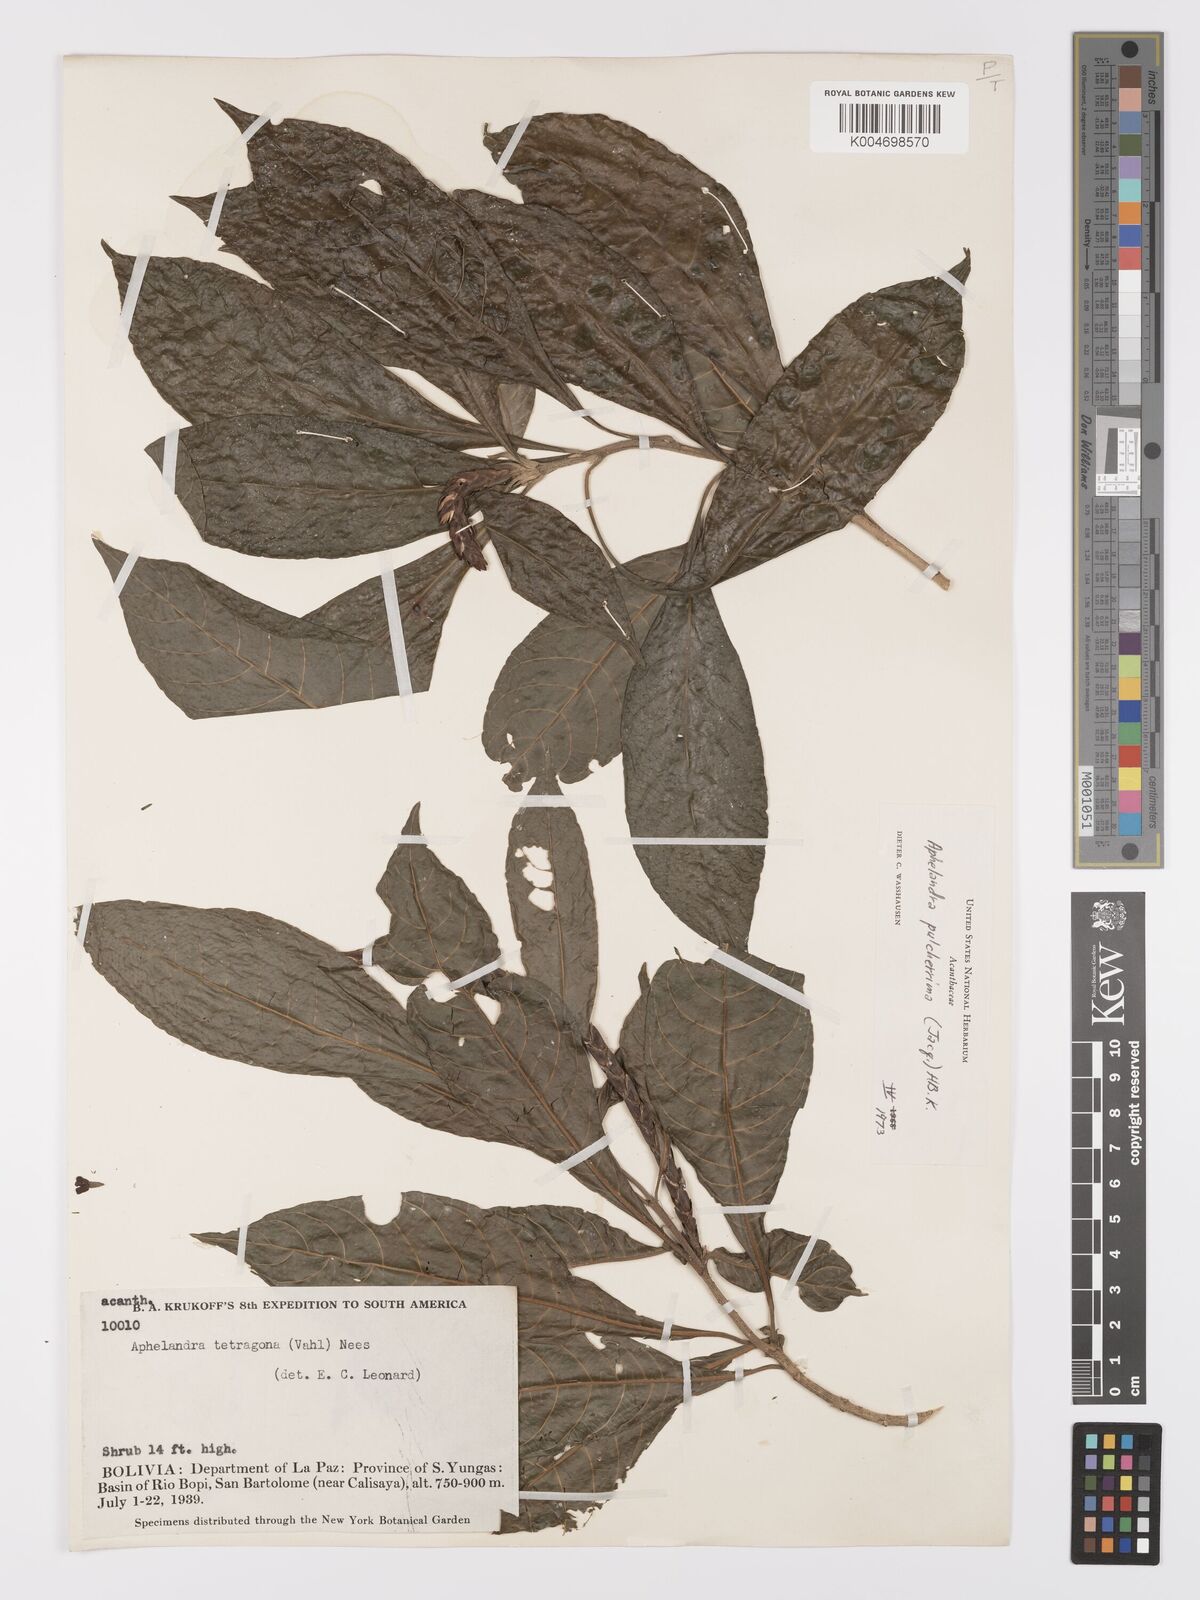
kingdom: Plantae
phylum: Tracheophyta
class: Magnoliopsida
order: Lamiales
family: Acanthaceae
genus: Aphelandra
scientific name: Aphelandra glabrata
